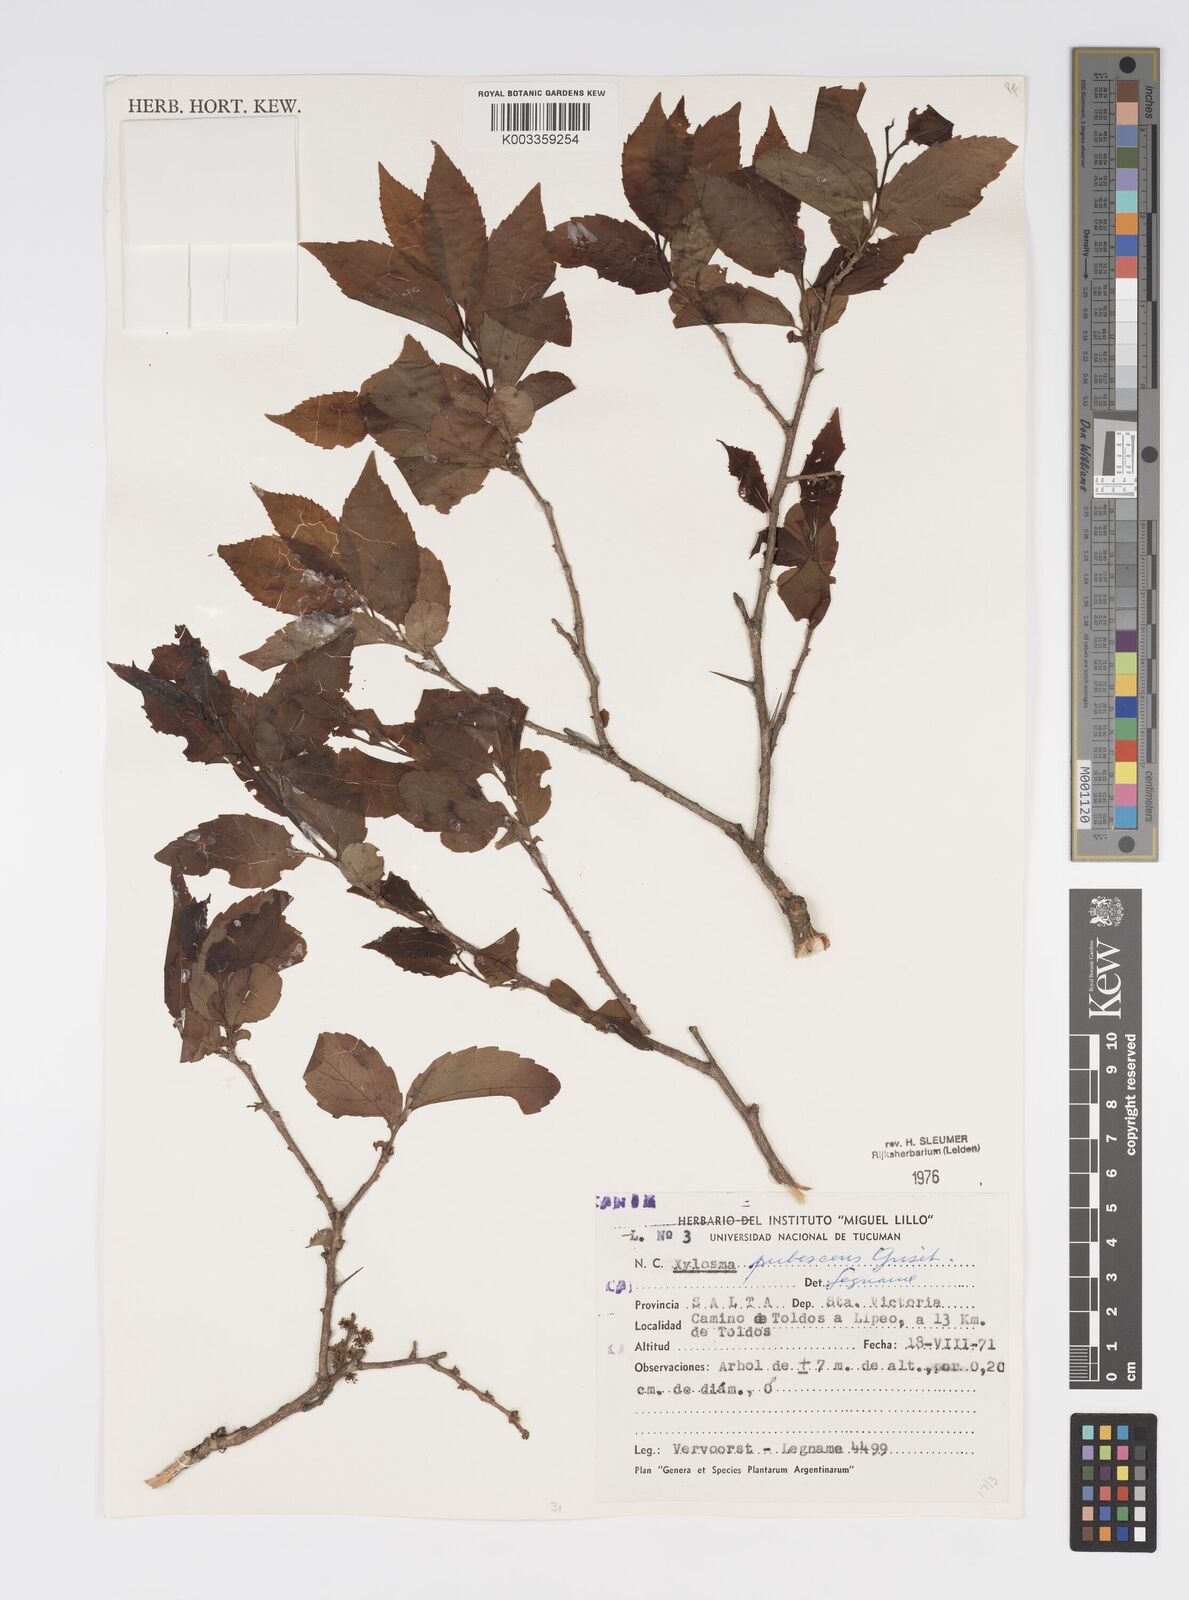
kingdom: Plantae
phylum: Tracheophyta
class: Magnoliopsida
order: Malpighiales
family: Salicaceae
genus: Xylosma
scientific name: Xylosma pubescens
